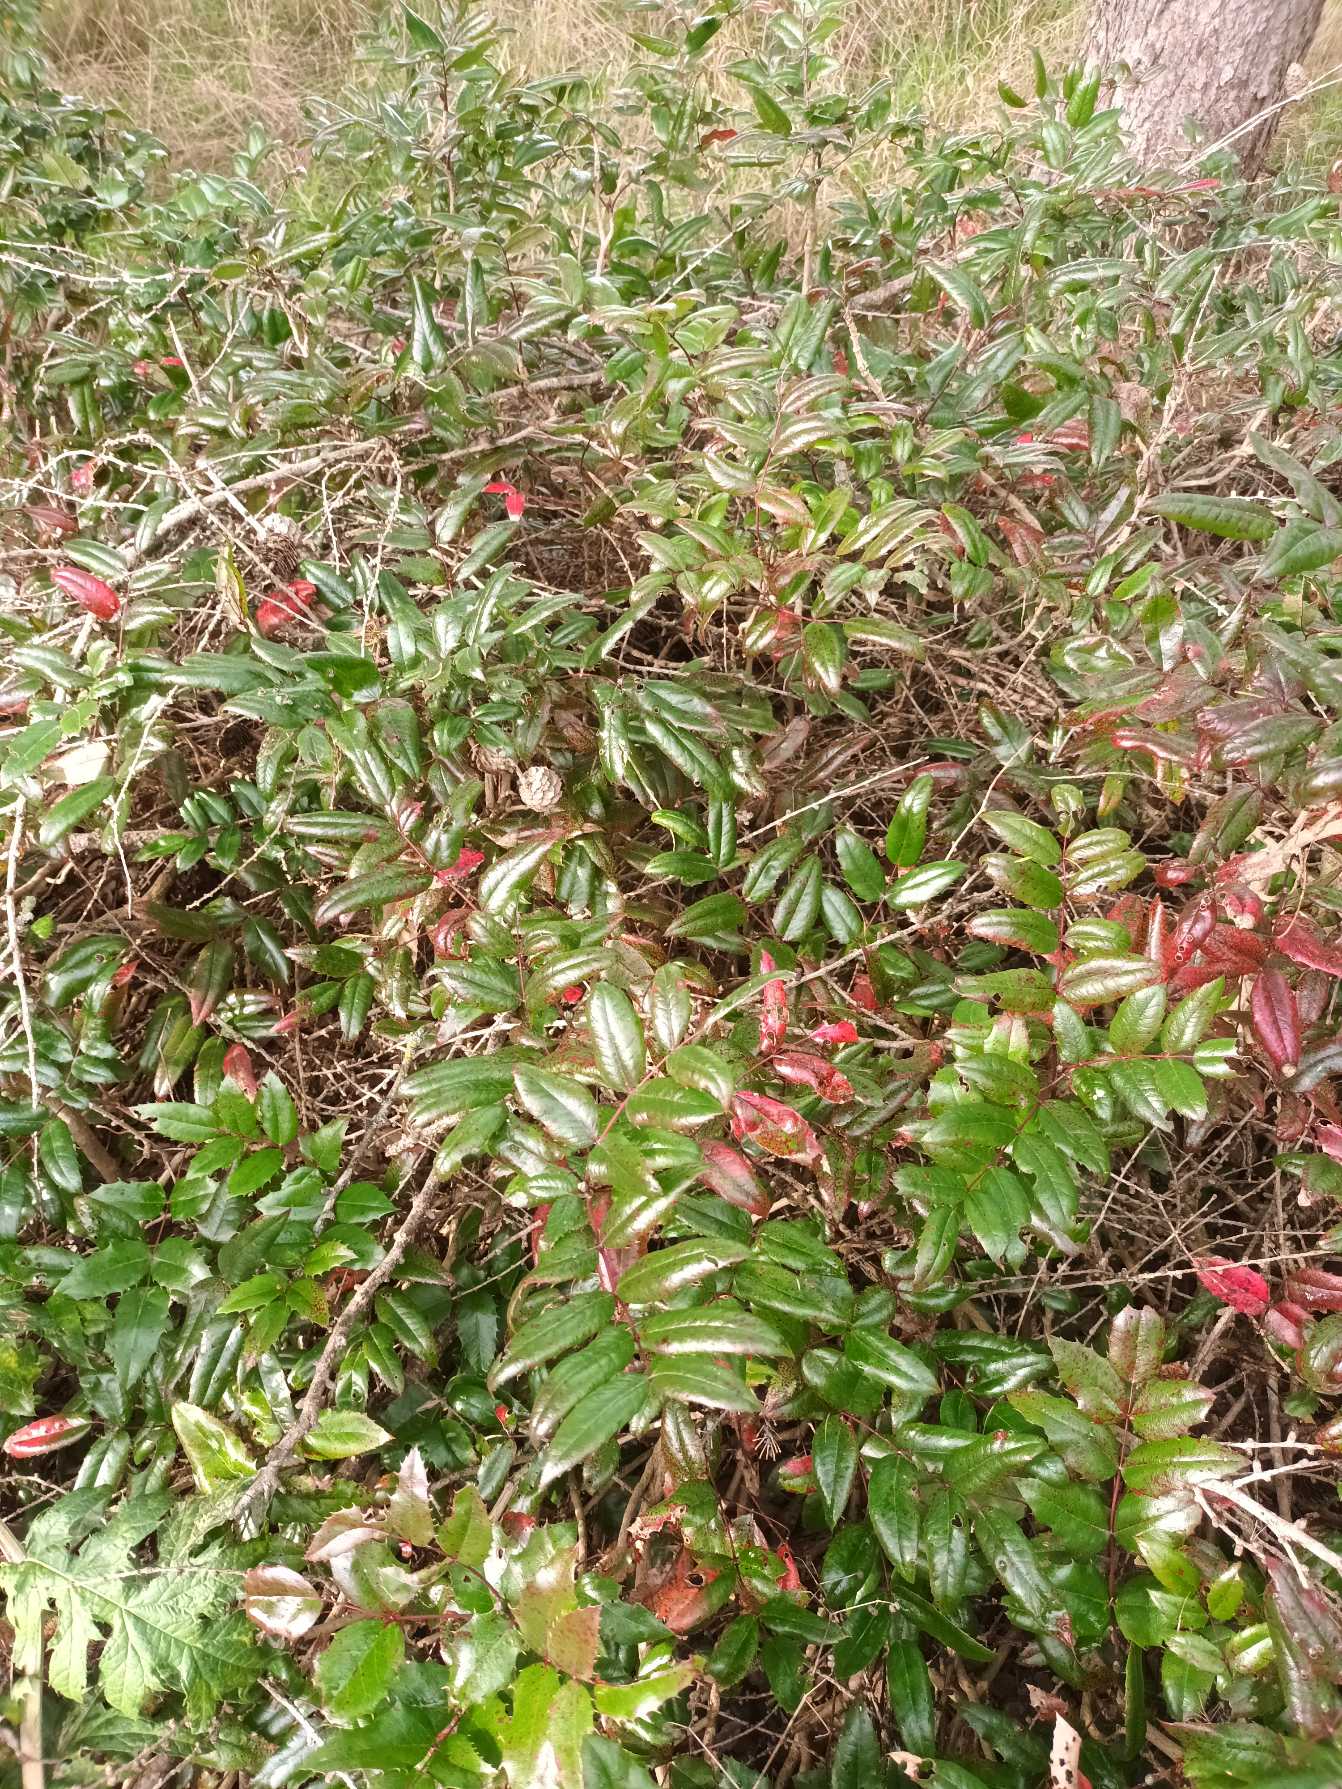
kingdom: Plantae
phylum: Tracheophyta
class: Magnoliopsida
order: Ranunculales
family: Berberidaceae
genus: Mahonia
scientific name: Mahonia aquifolium
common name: Almindelig mahonie
